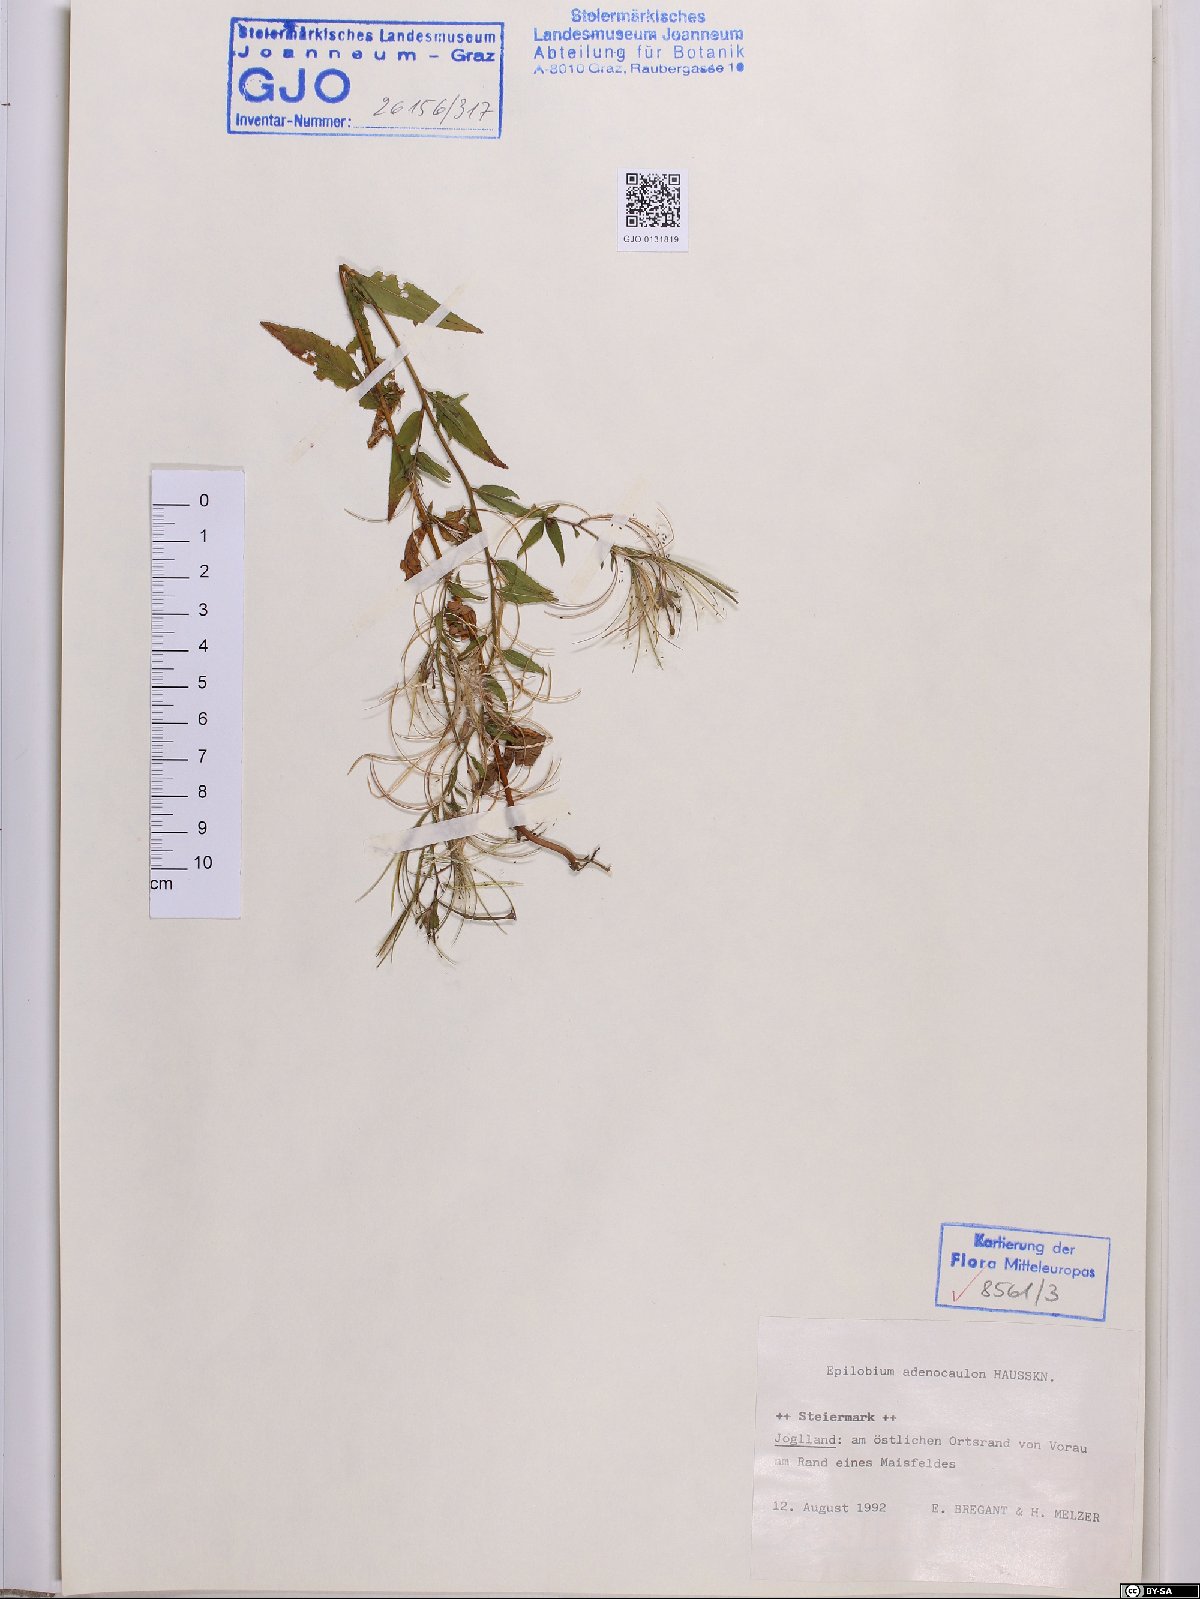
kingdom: Plantae
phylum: Tracheophyta
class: Magnoliopsida
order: Myrtales
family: Onagraceae
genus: Epilobium
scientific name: Epilobium ciliatum
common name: American willowherb
